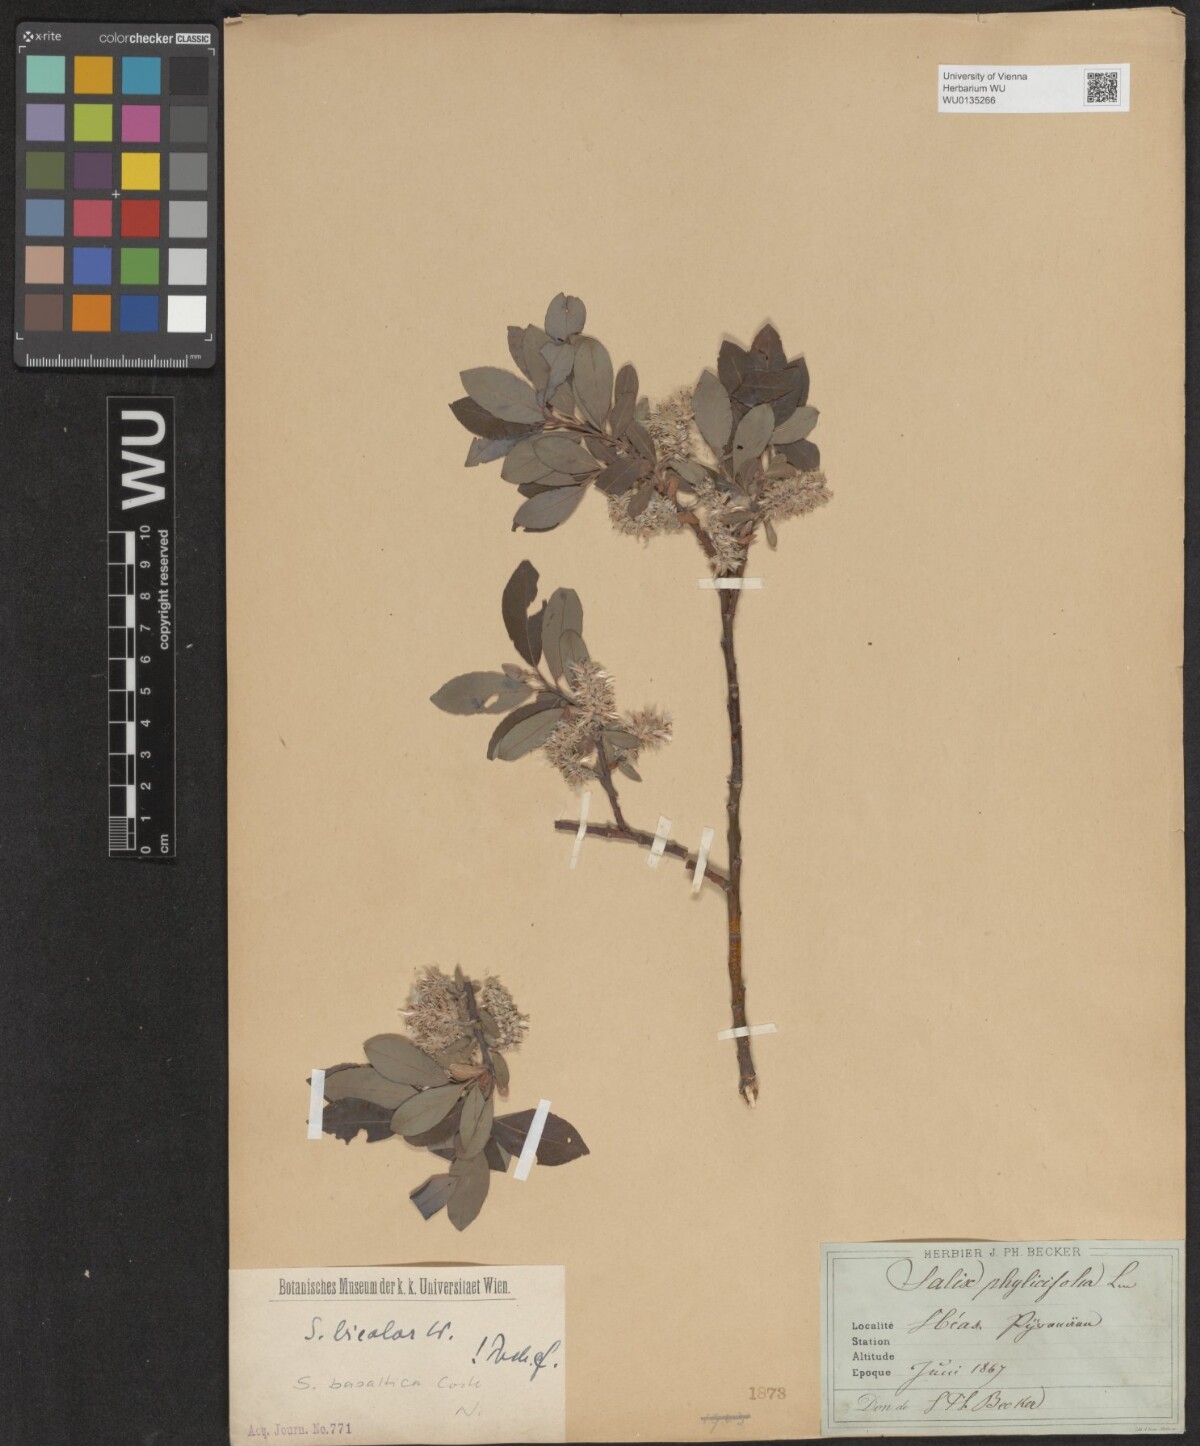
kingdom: Plantae
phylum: Tracheophyta
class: Magnoliopsida
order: Malpighiales
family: Salicaceae
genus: Salix
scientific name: Salix basaltica
